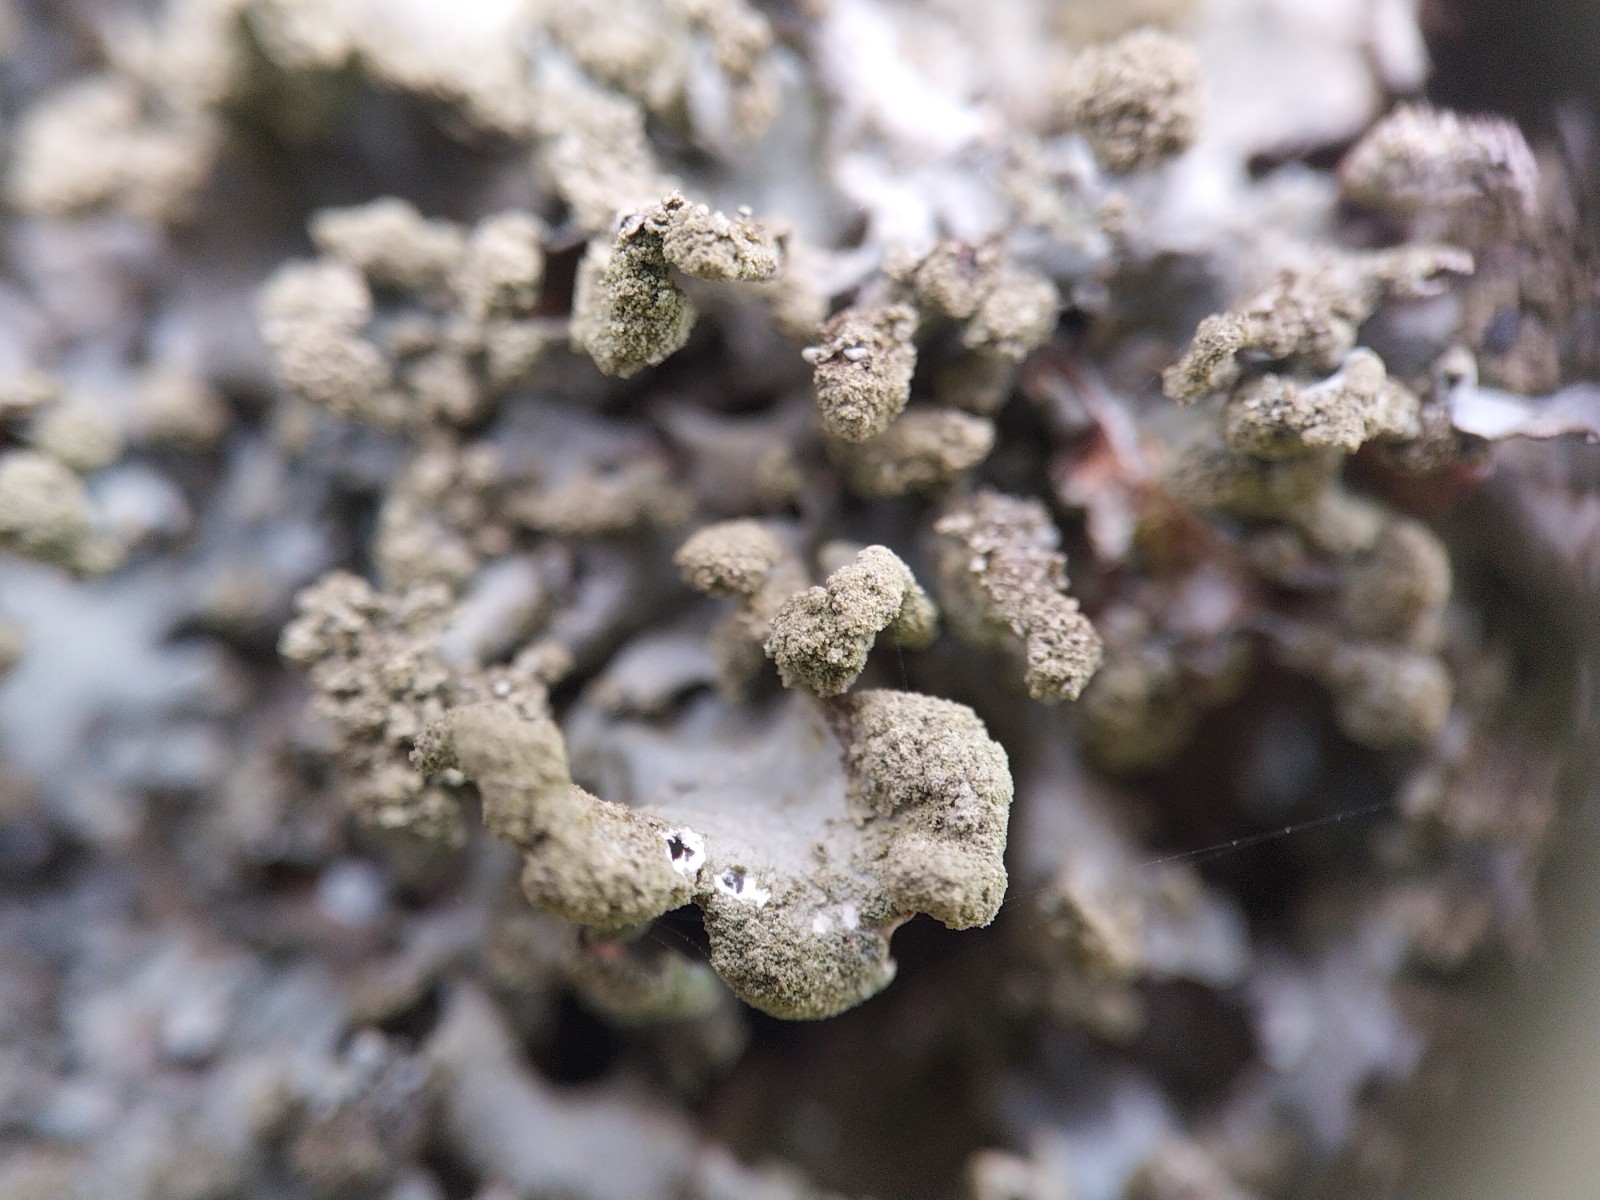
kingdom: Fungi
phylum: Ascomycota
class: Lecanoromycetes
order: Lecanorales
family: Parmeliaceae
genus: Hypotrachyna
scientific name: Hypotrachyna revoluta
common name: bleggrå skållav
